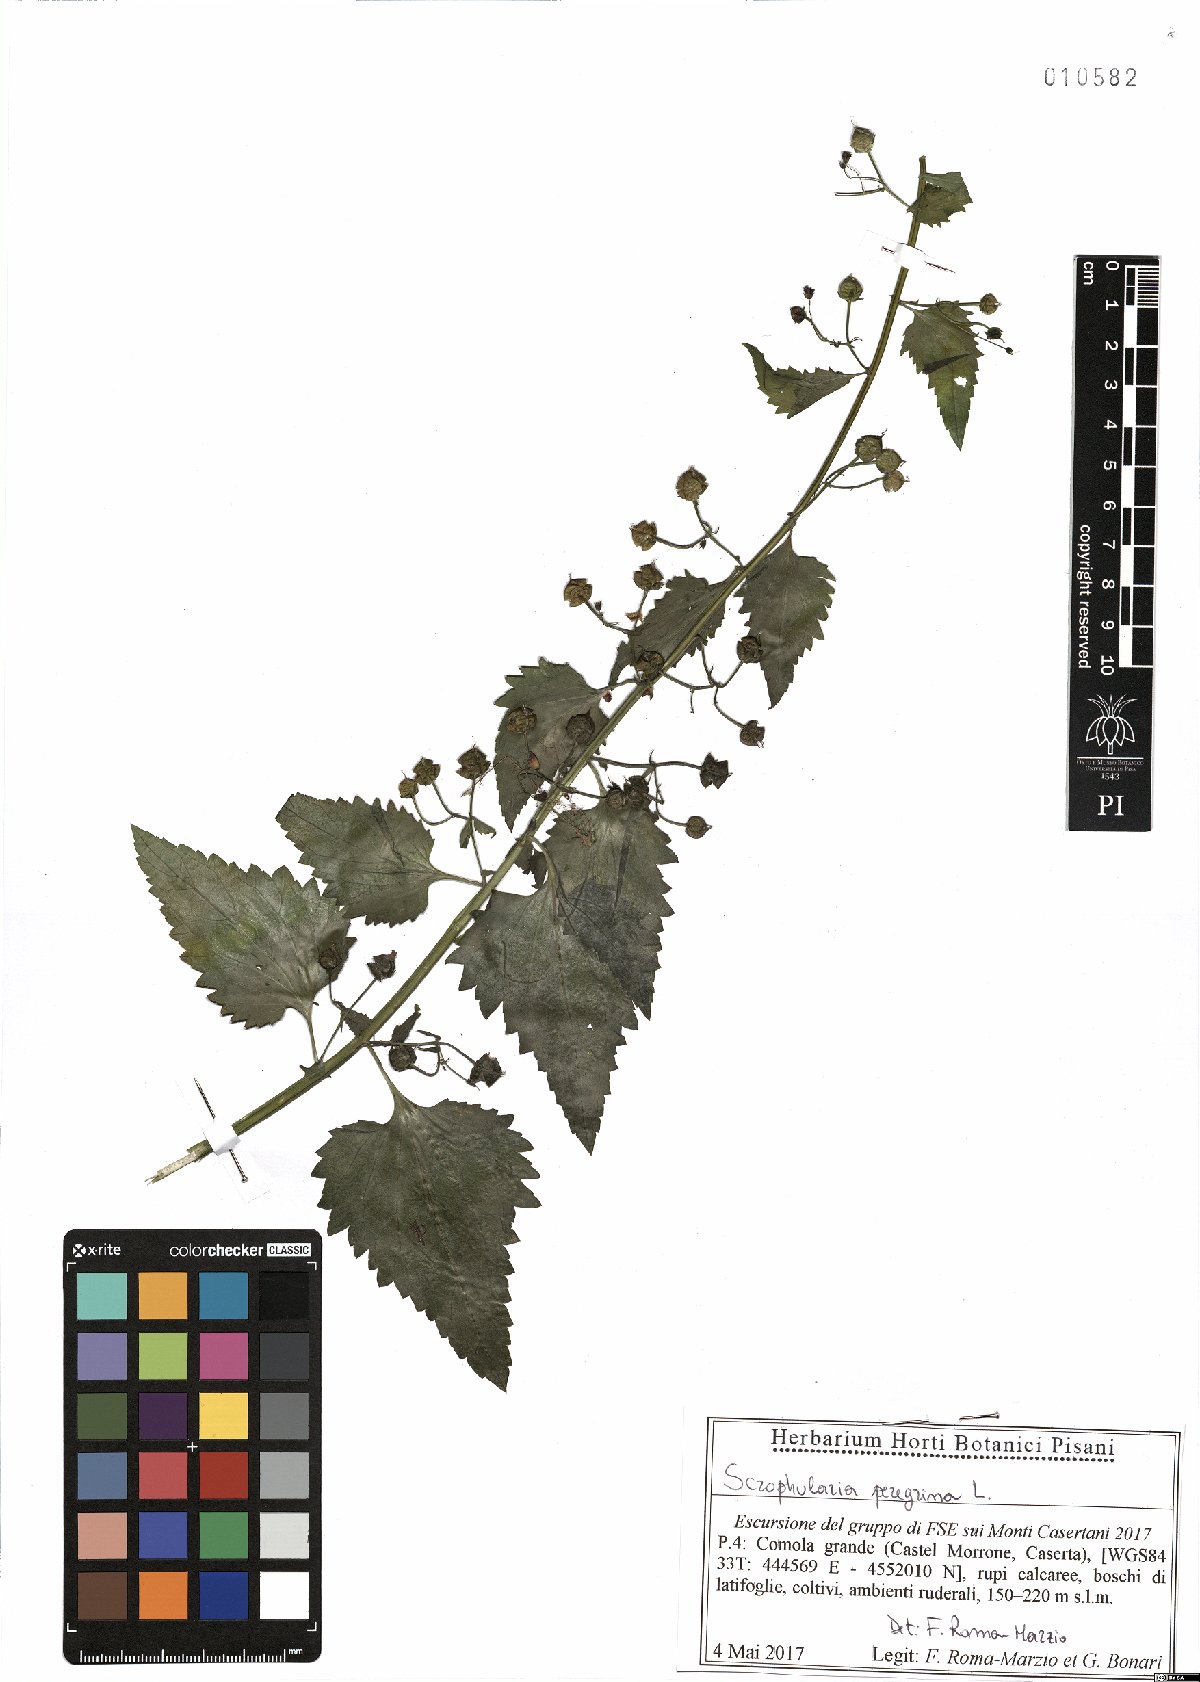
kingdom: Plantae
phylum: Tracheophyta
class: Magnoliopsida
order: Lamiales
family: Scrophulariaceae
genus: Scrophularia
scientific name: Scrophularia peregrina
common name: Mediterranean figwort
